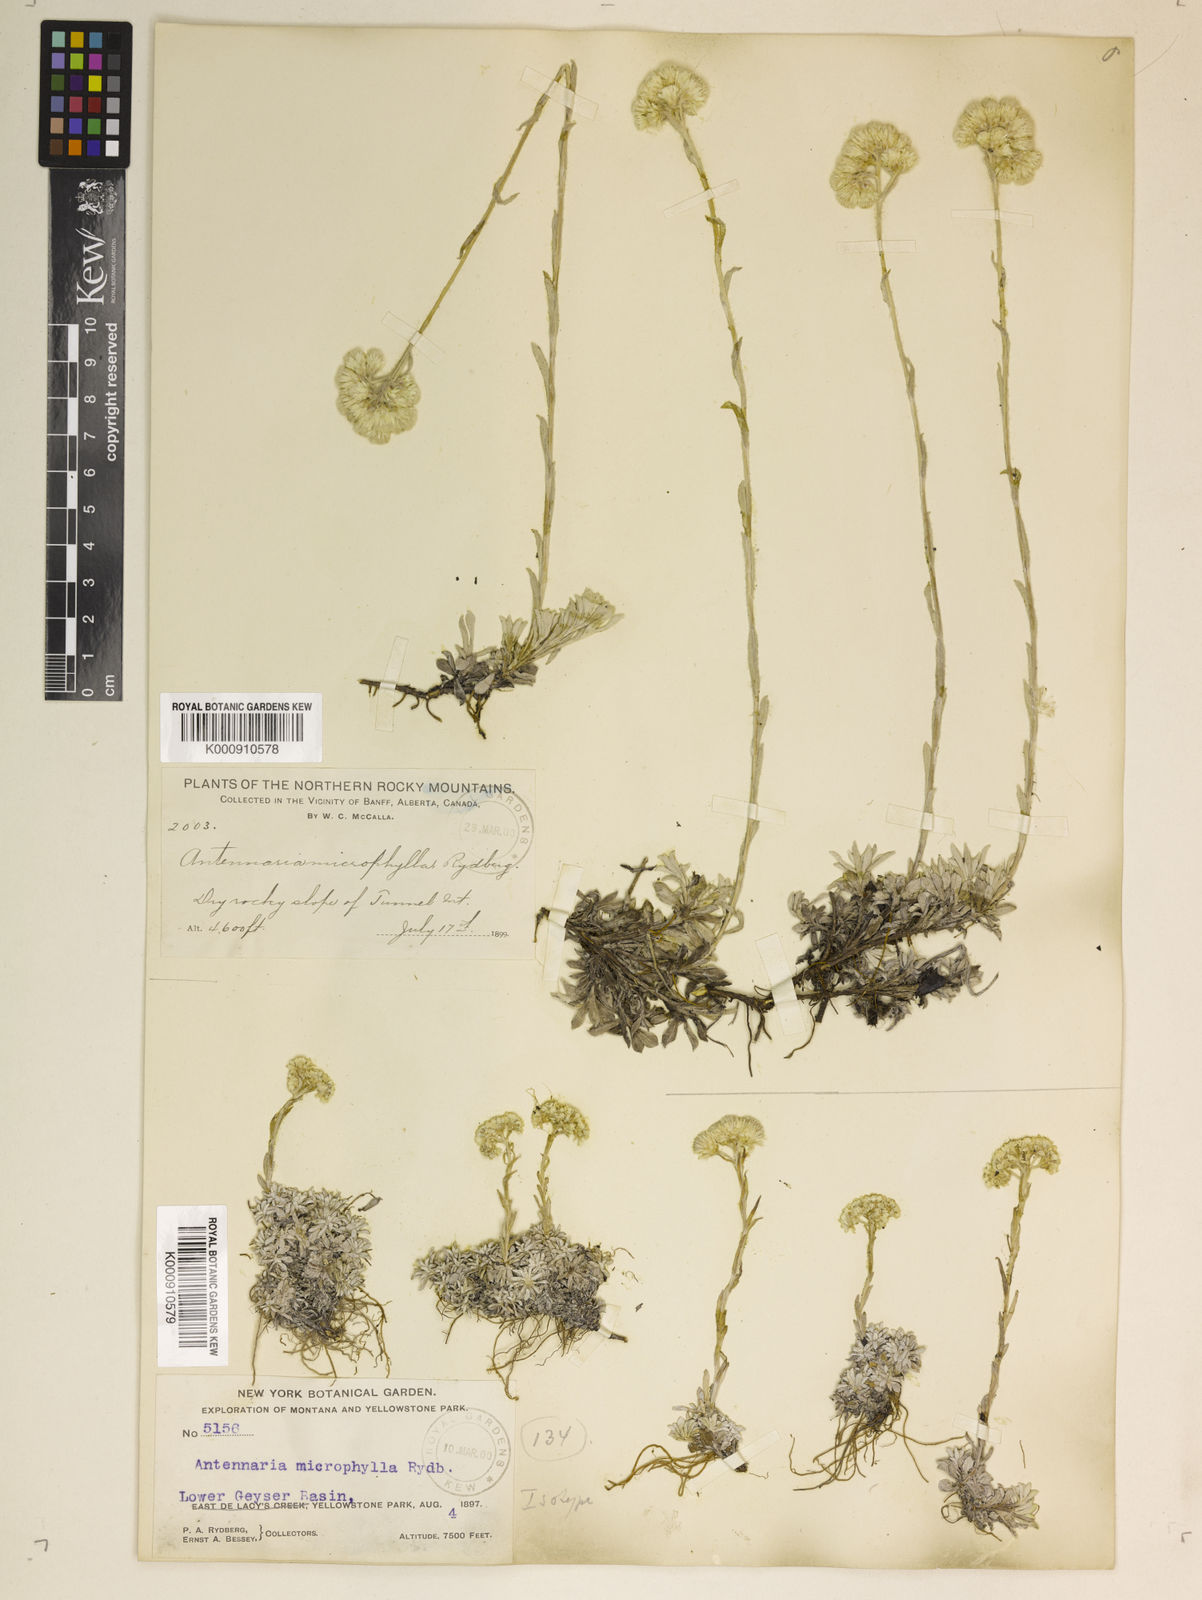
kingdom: Plantae
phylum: Tracheophyta
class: Magnoliopsida
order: Asterales
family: Asteraceae
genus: Antennaria
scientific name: Antennaria microphylla
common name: Littleleaf pussytoes
